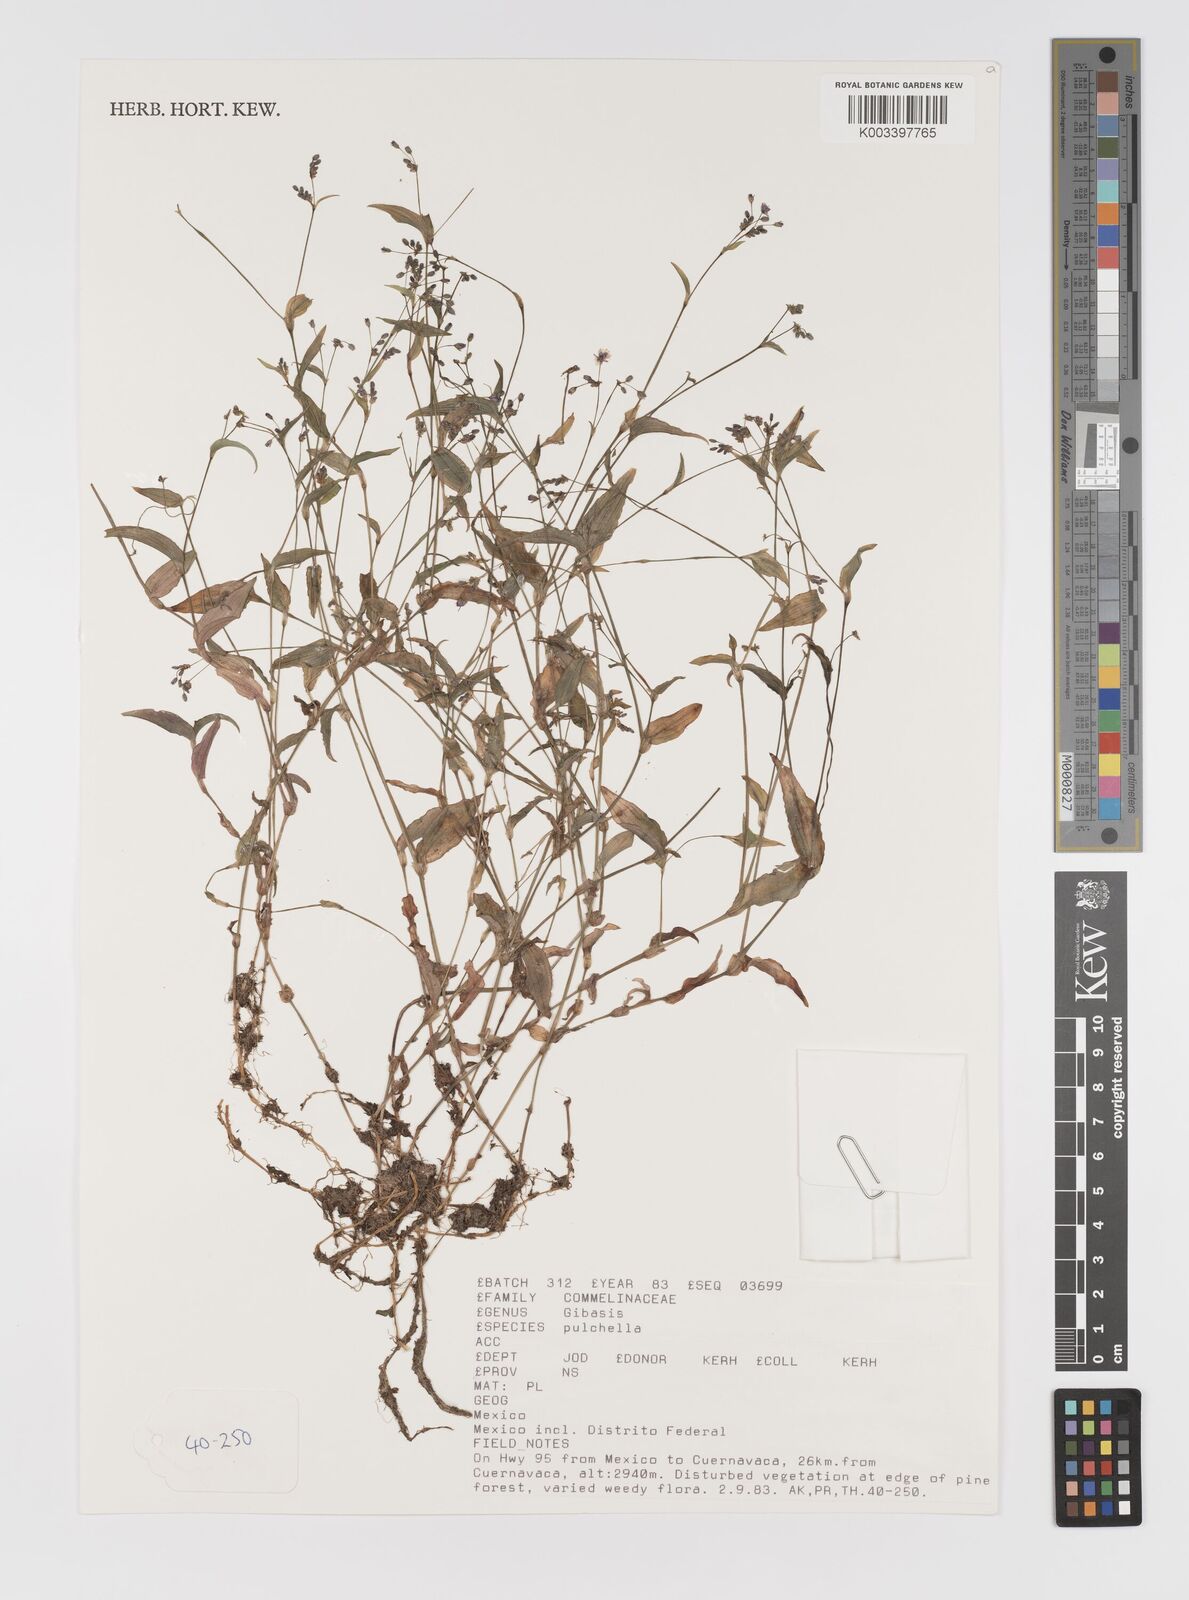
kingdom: Plantae
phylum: Tracheophyta
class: Liliopsida
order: Commelinales
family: Commelinaceae
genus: Gibasis
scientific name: Gibasis pulchella
